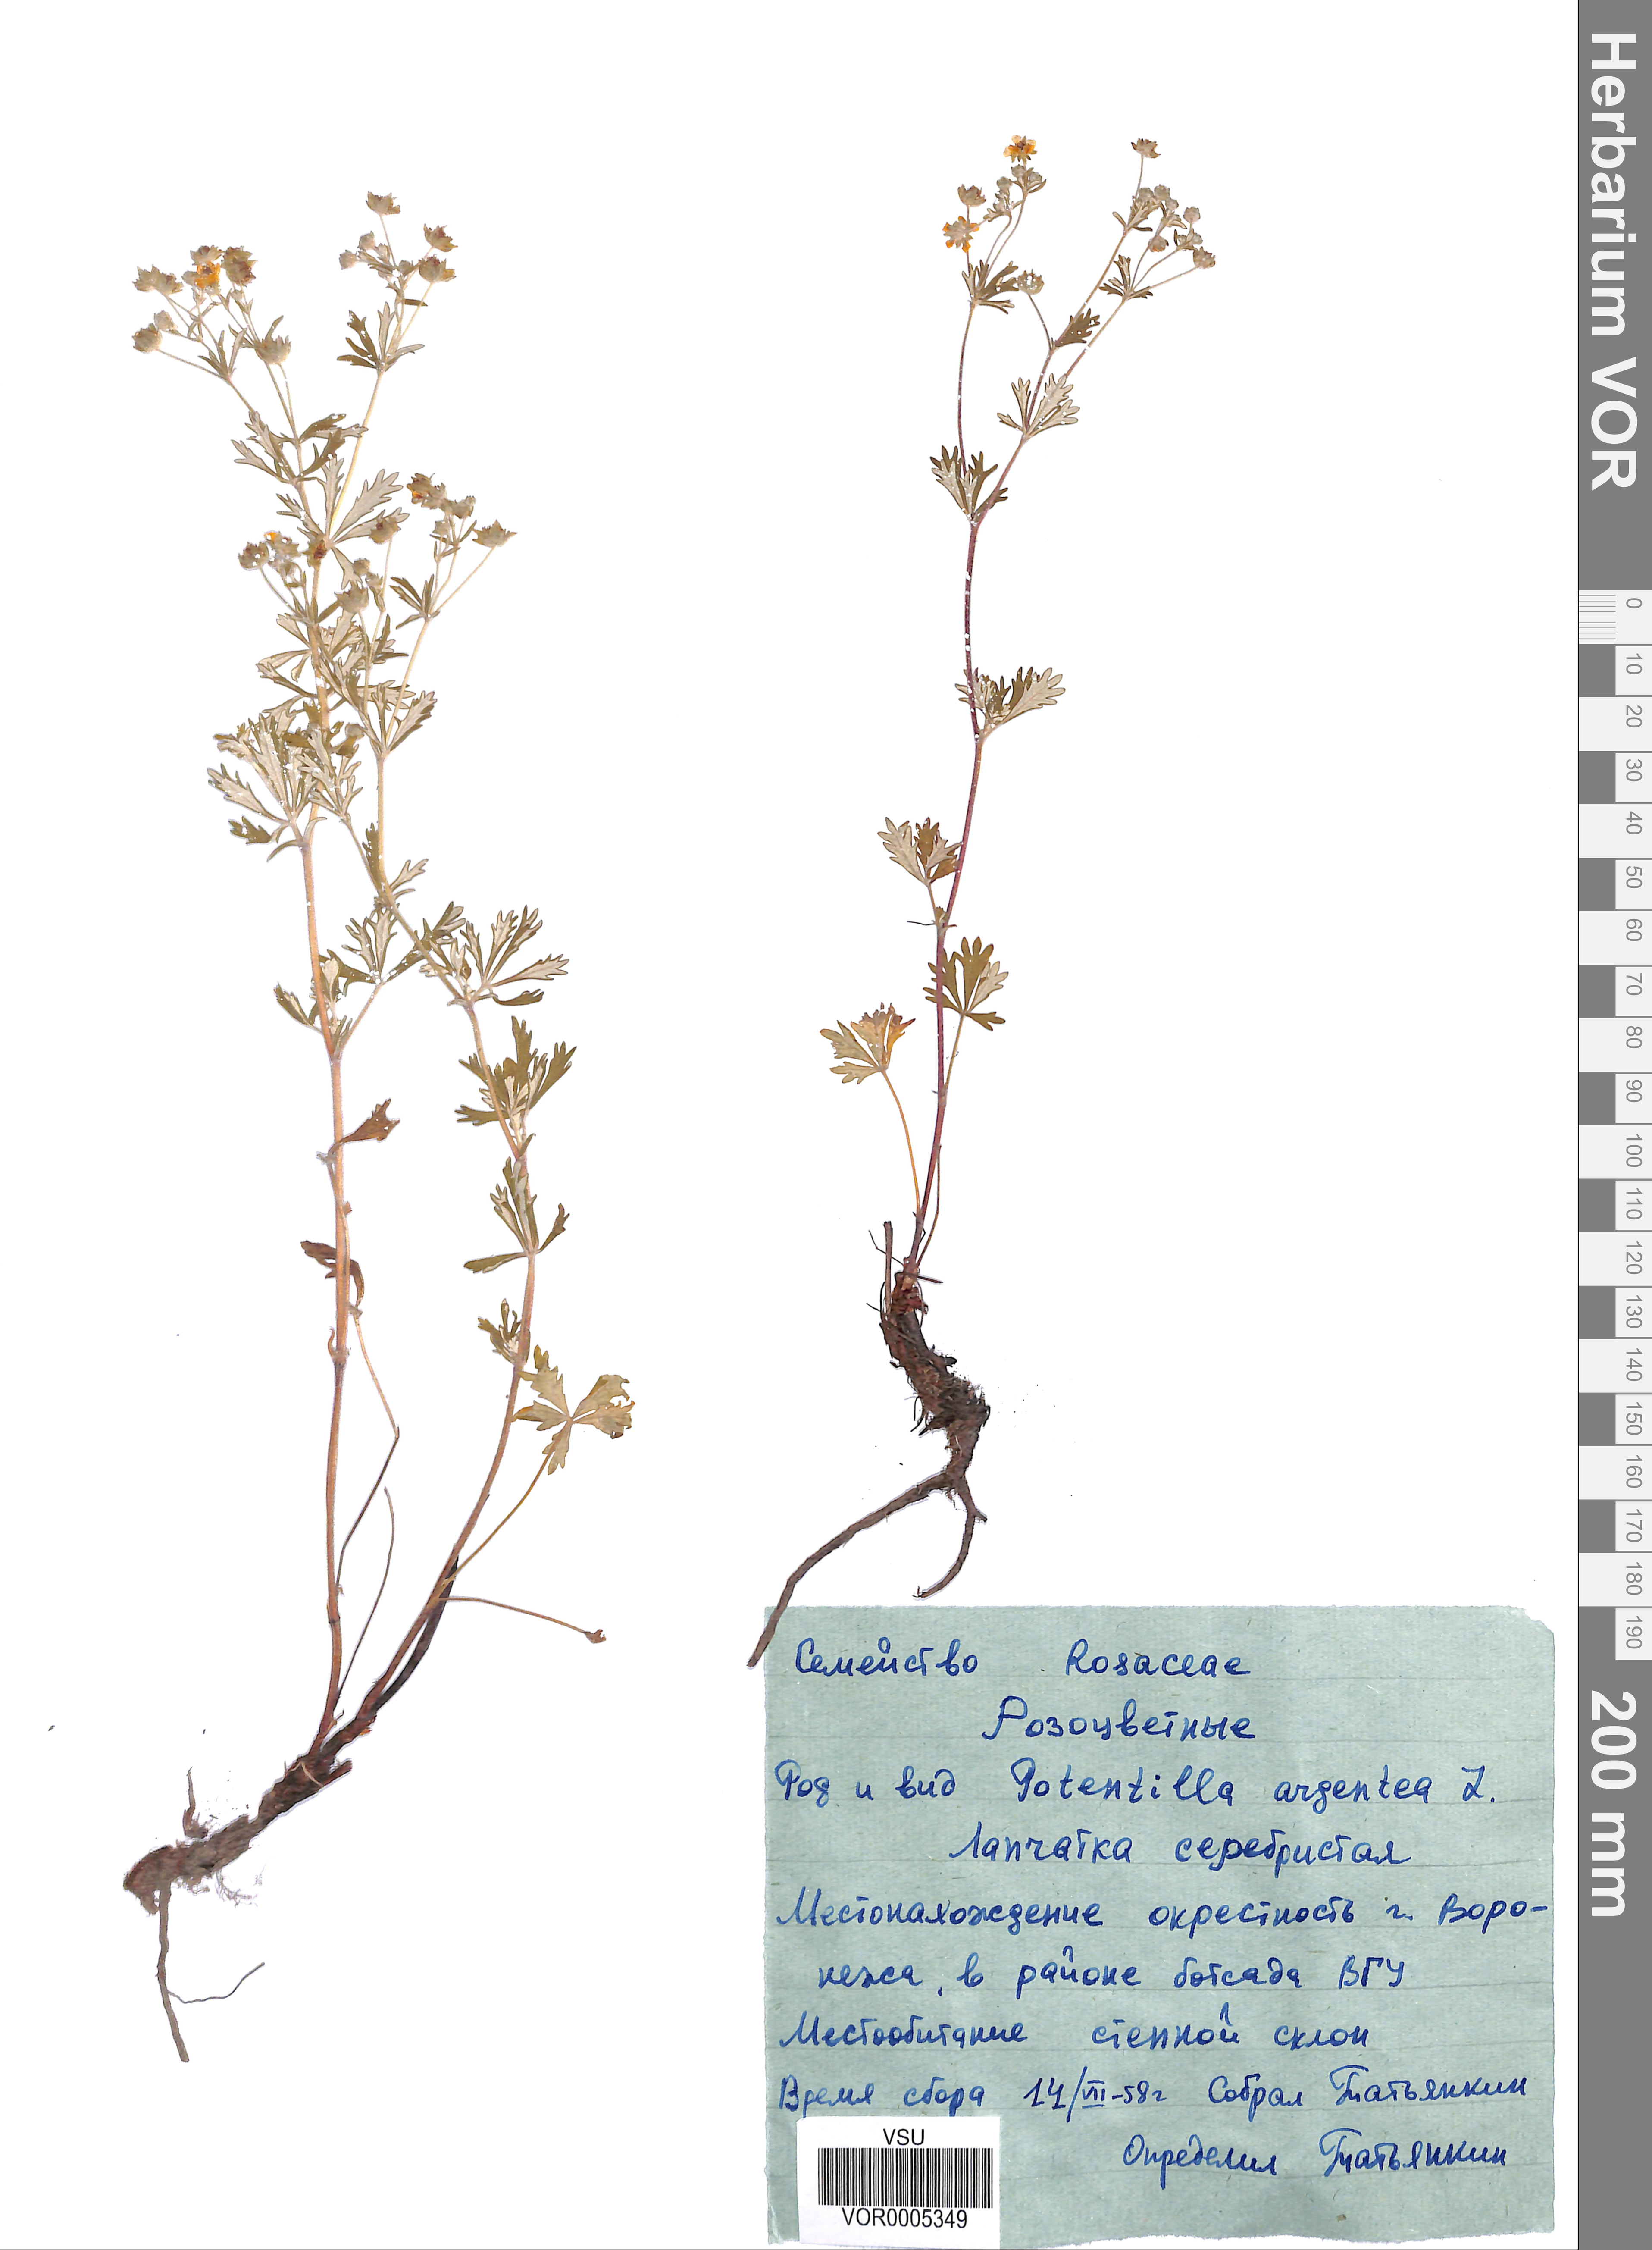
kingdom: Plantae
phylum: Tracheophyta
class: Magnoliopsida
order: Rosales
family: Rosaceae
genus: Potentilla
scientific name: Potentilla argentea
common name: Hoary cinquefoil
